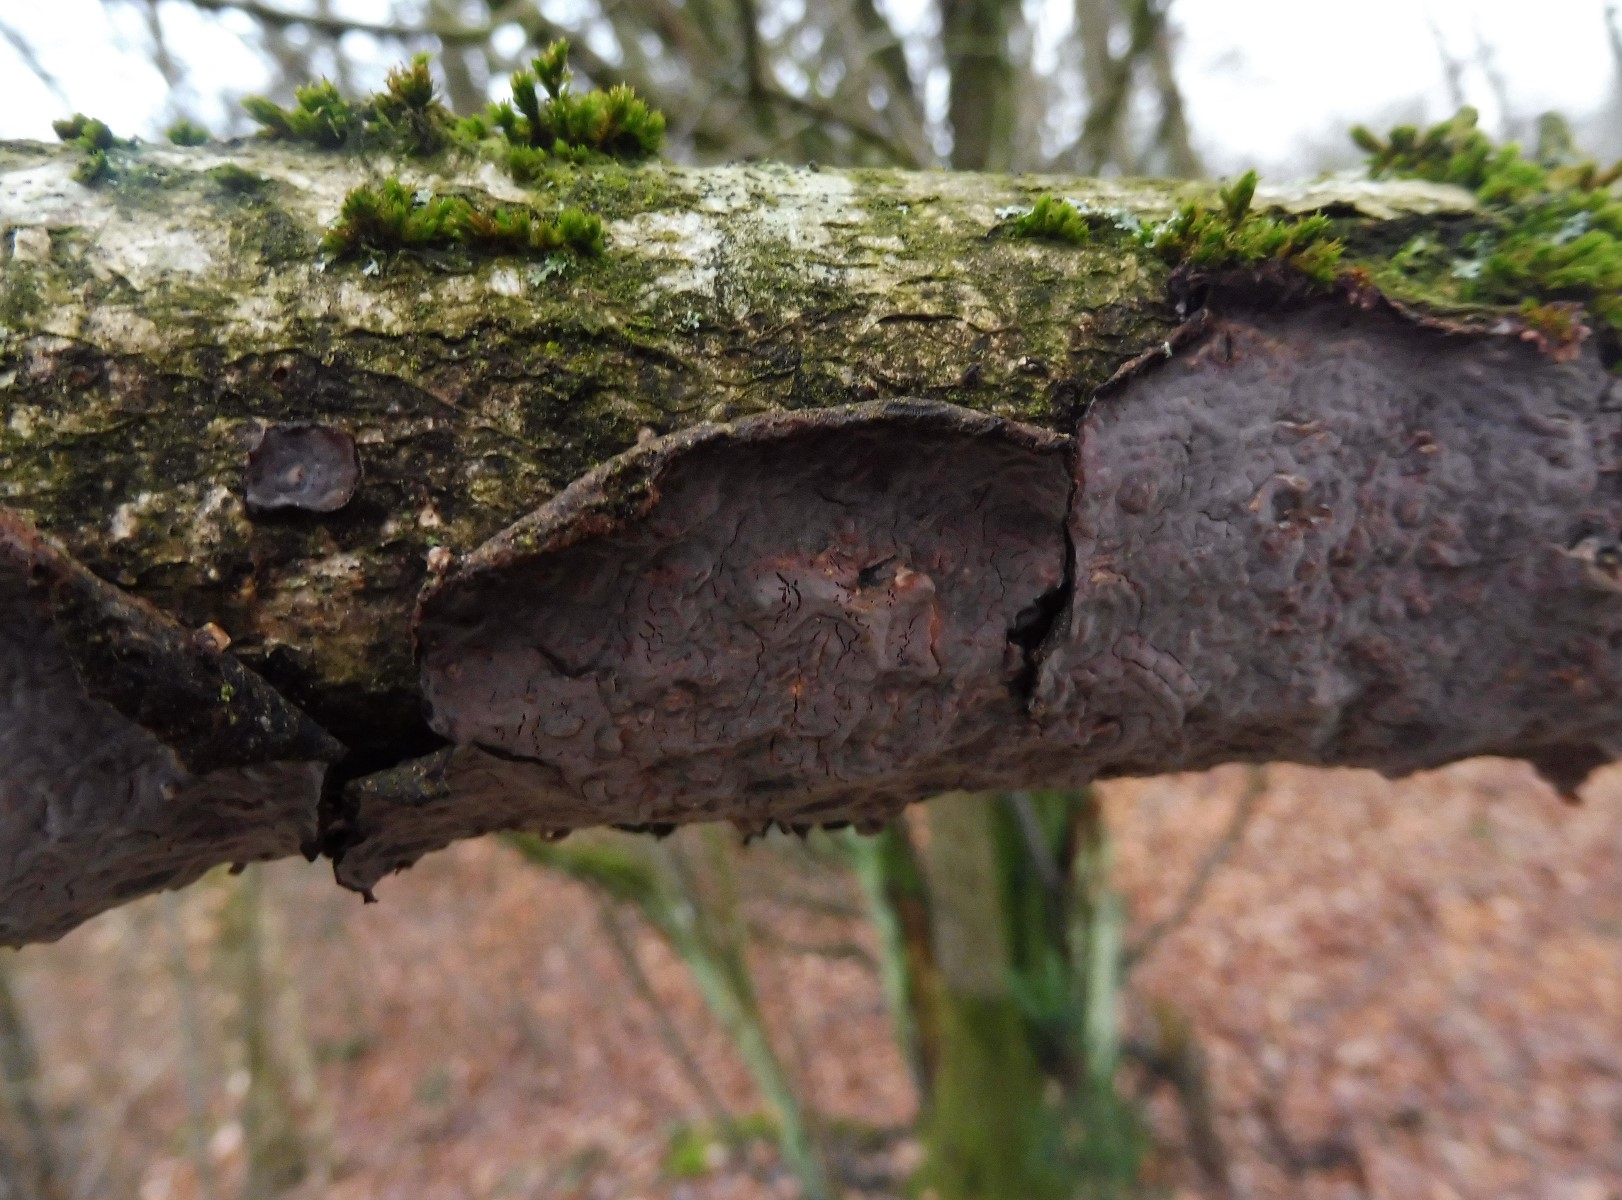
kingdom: Fungi
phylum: Basidiomycota
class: Agaricomycetes
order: Russulales
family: Peniophoraceae
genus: Peniophora
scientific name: Peniophora quercina
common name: ege-voksskind
